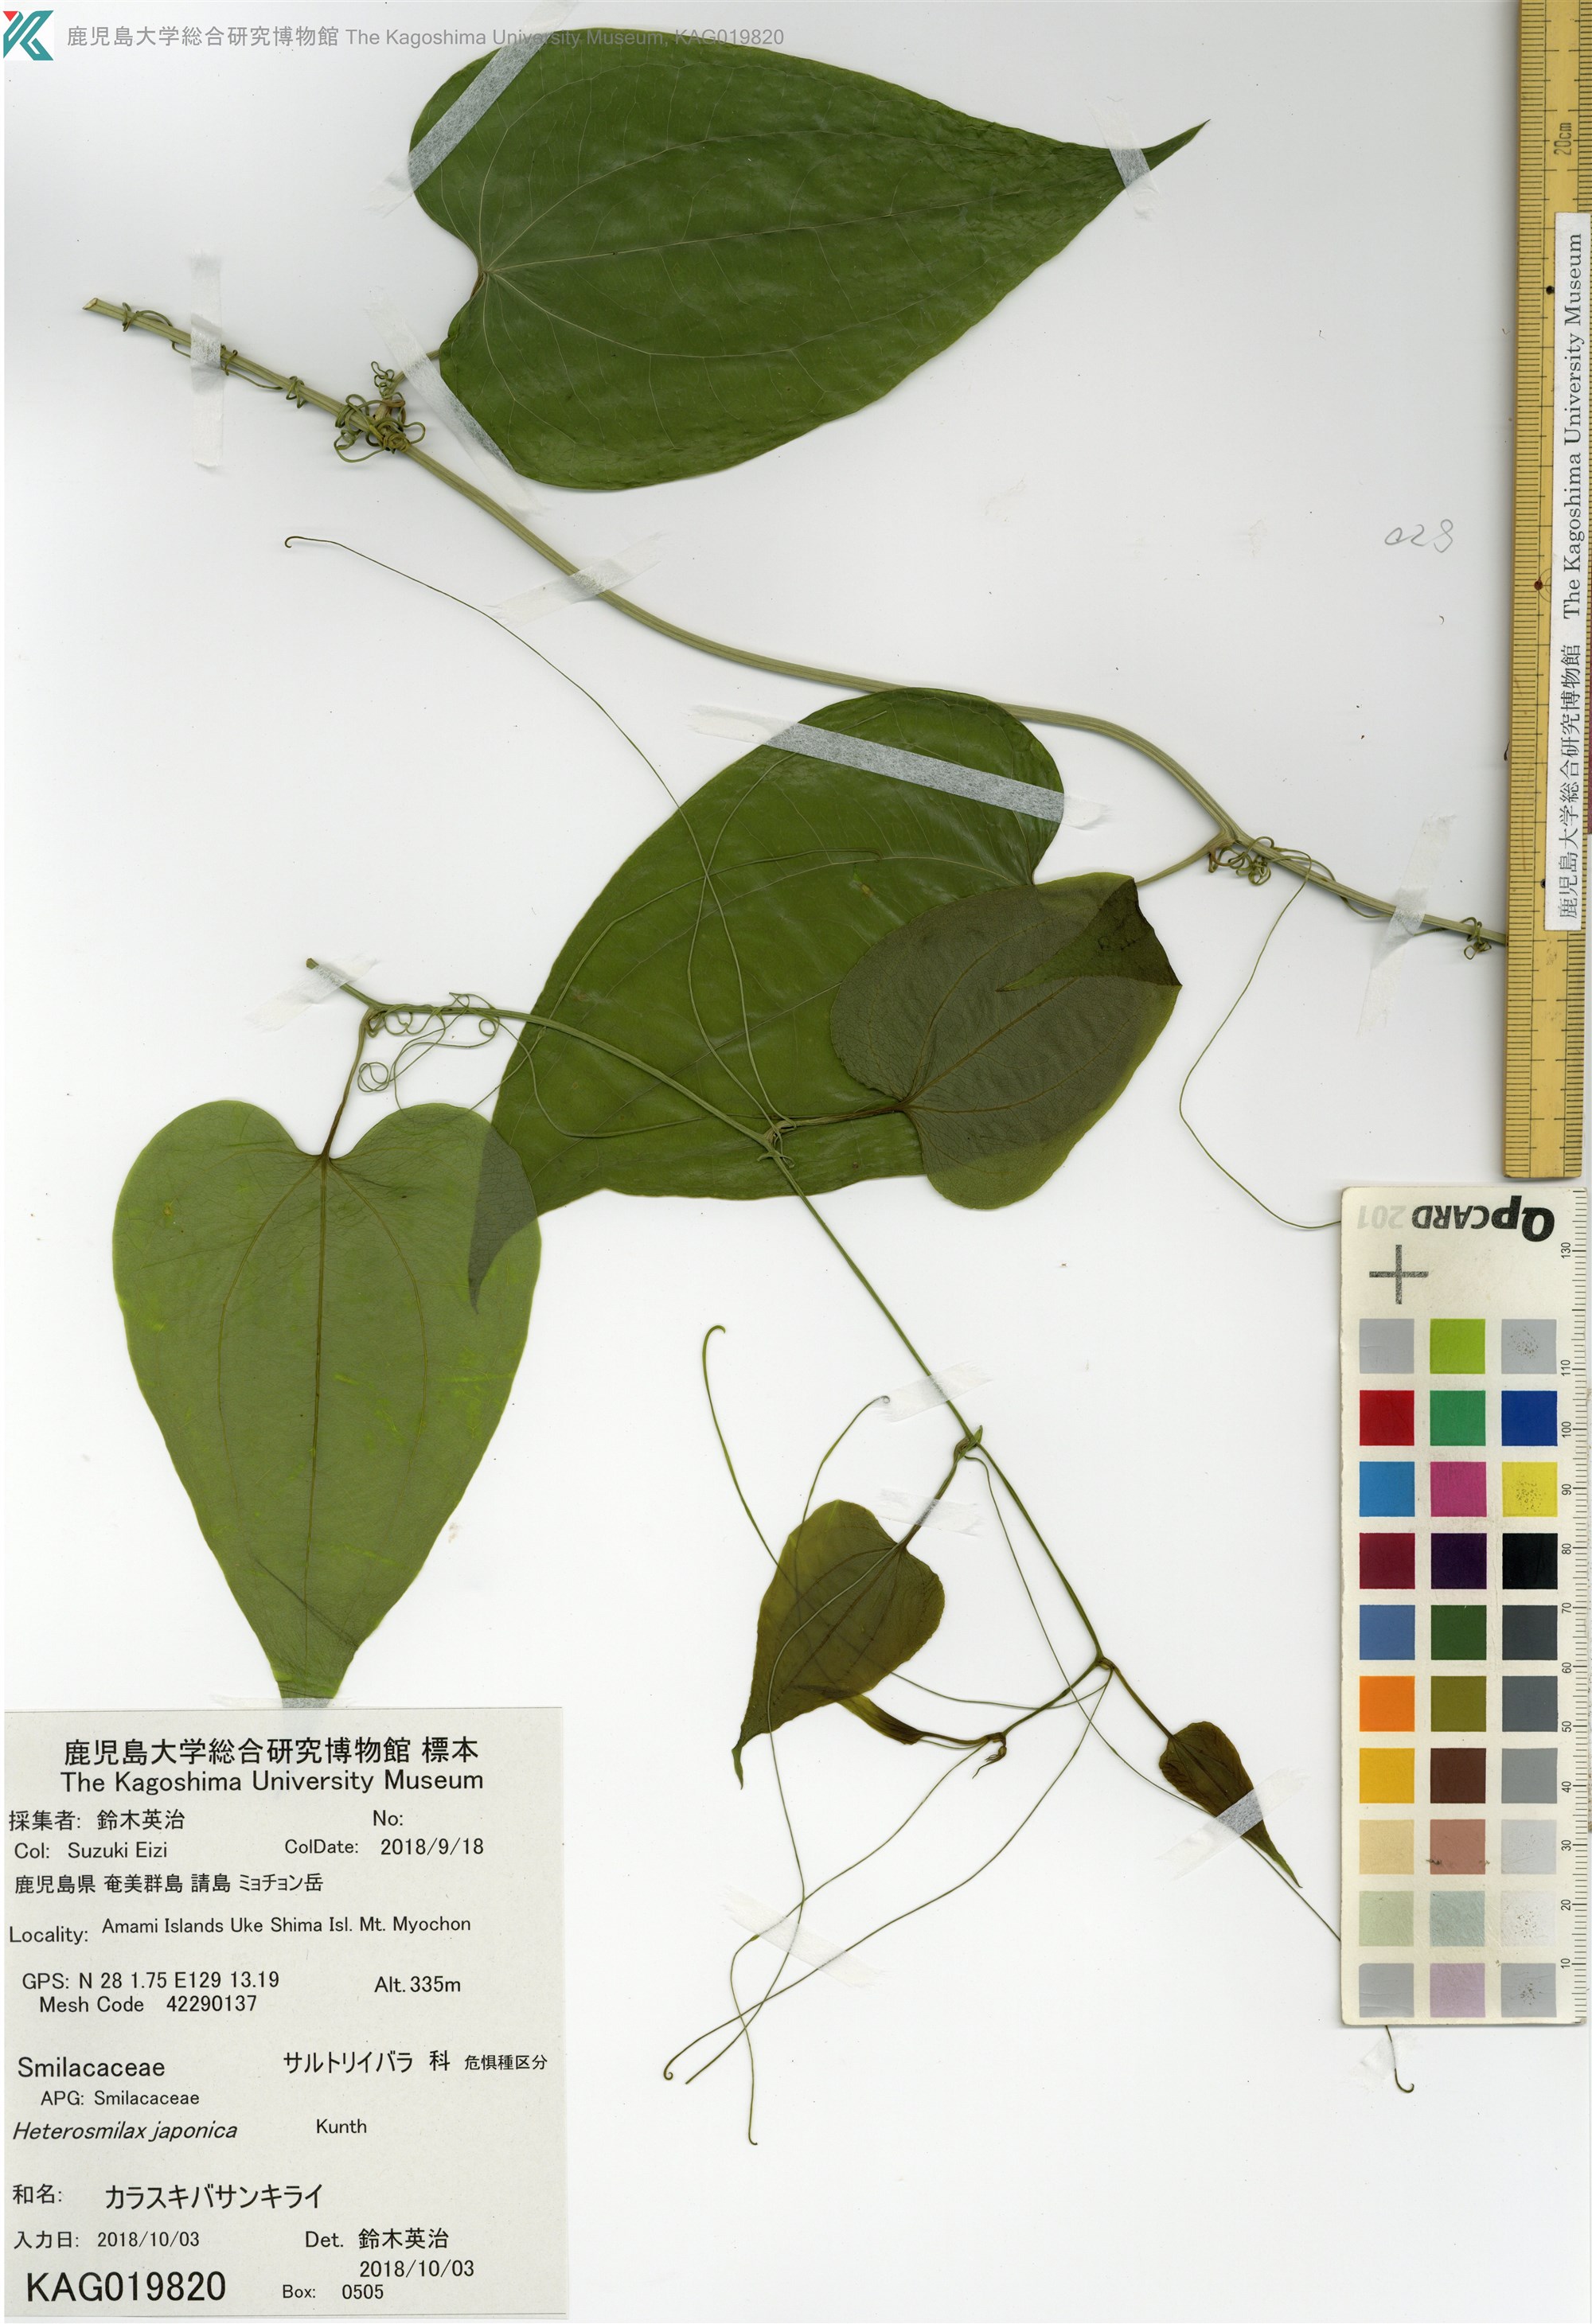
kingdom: Plantae
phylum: Tracheophyta
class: Liliopsida
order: Liliales
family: Smilacaceae
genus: Smilax
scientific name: Smilax insularis
